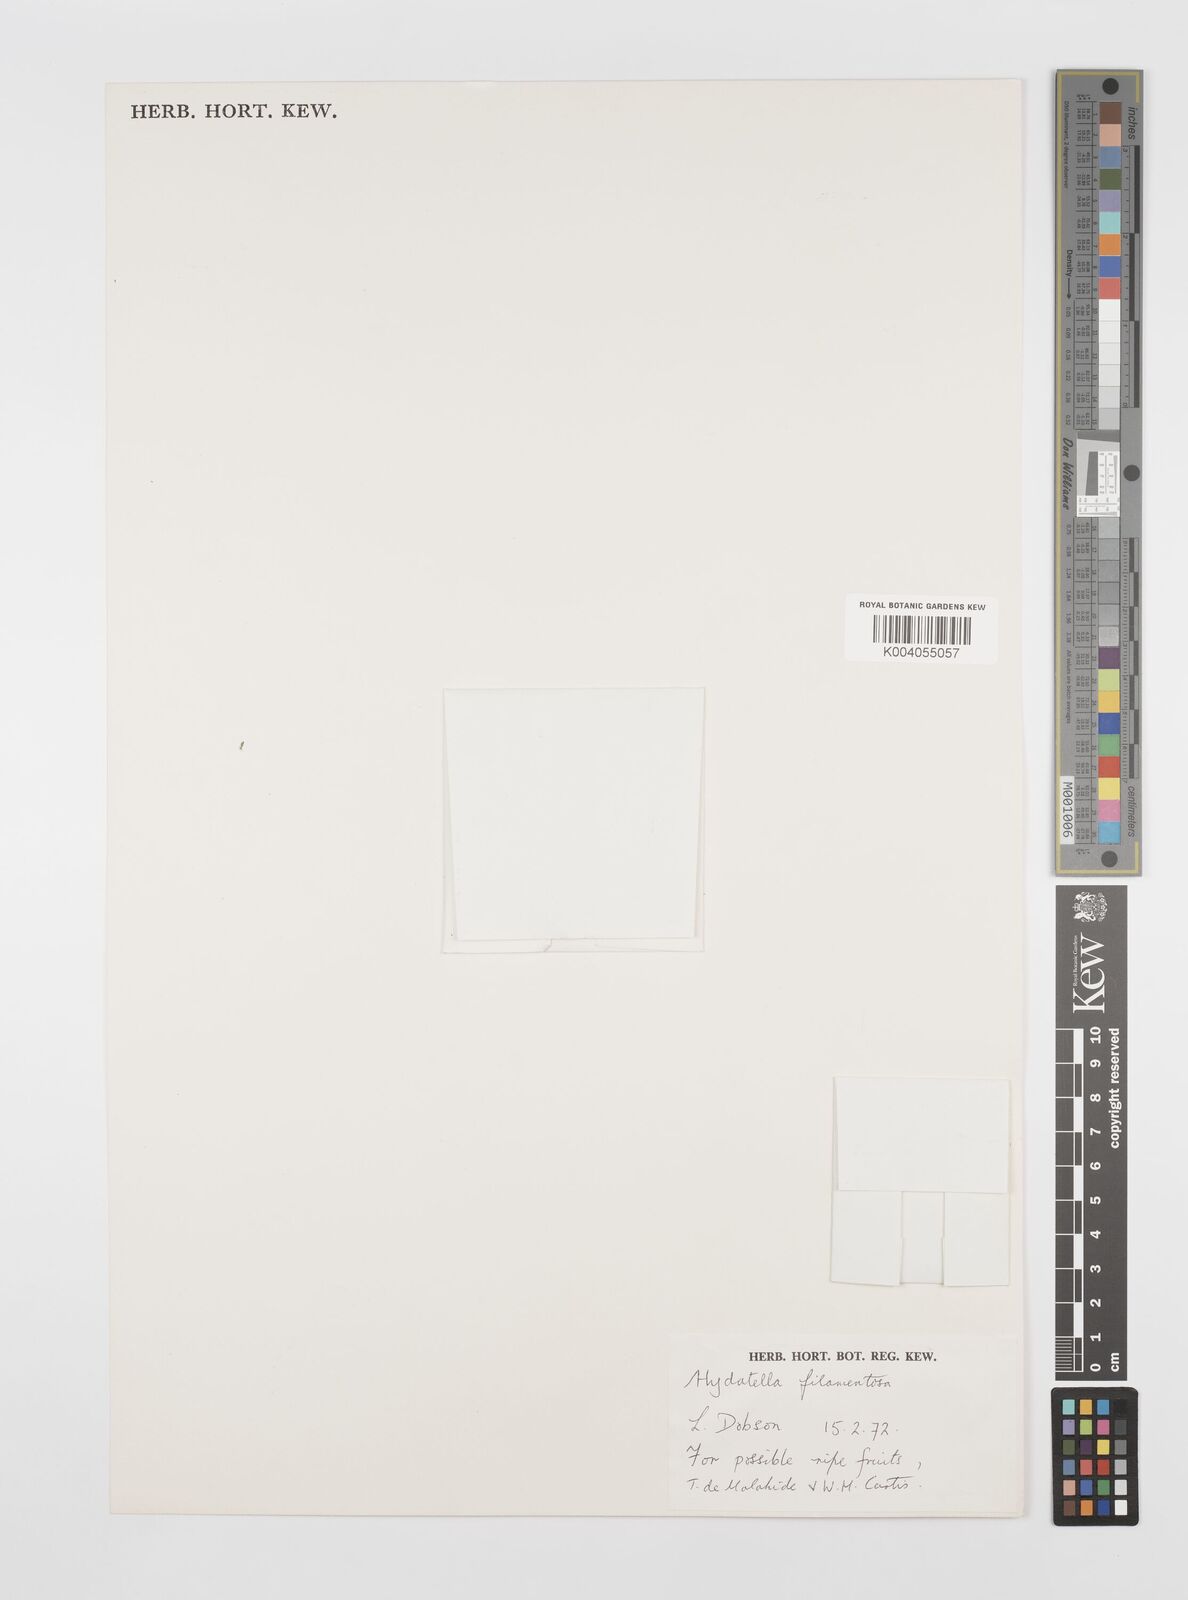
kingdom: Plantae
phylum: Tracheophyta
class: Magnoliopsida
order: Nymphaeales
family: Hydatellaceae
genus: Trithuria
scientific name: Trithuria filamentosa
